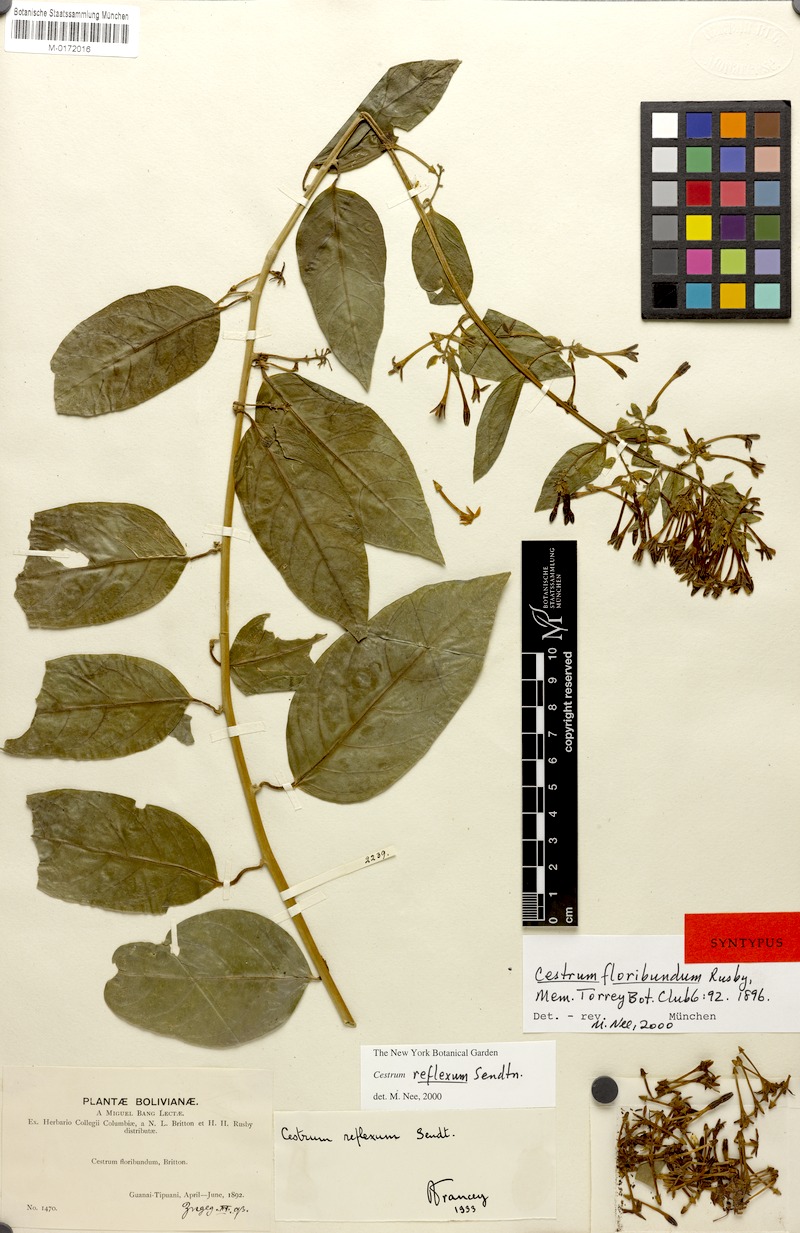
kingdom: Plantae
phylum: Tracheophyta
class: Magnoliopsida
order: Solanales
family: Solanaceae
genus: Cestrum
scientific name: Cestrum reflexum
